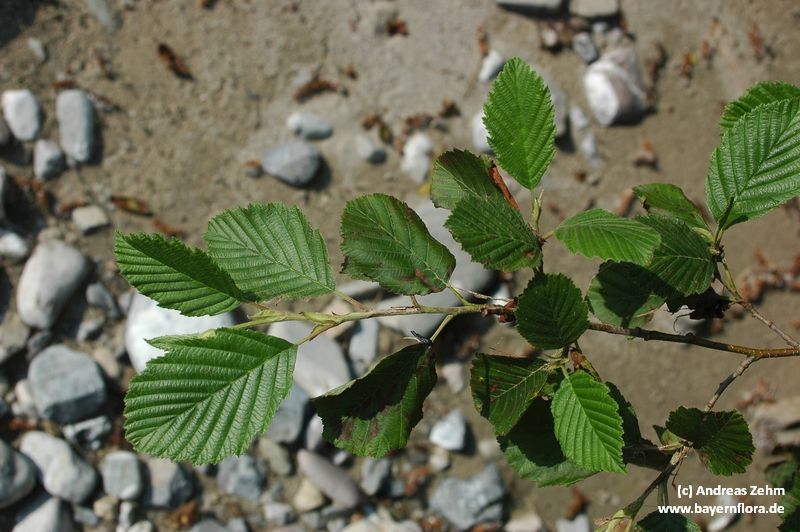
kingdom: Plantae
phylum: Tracheophyta
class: Magnoliopsida
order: Fagales
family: Betulaceae
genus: Alnus
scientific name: Alnus incana
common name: Grey alder
